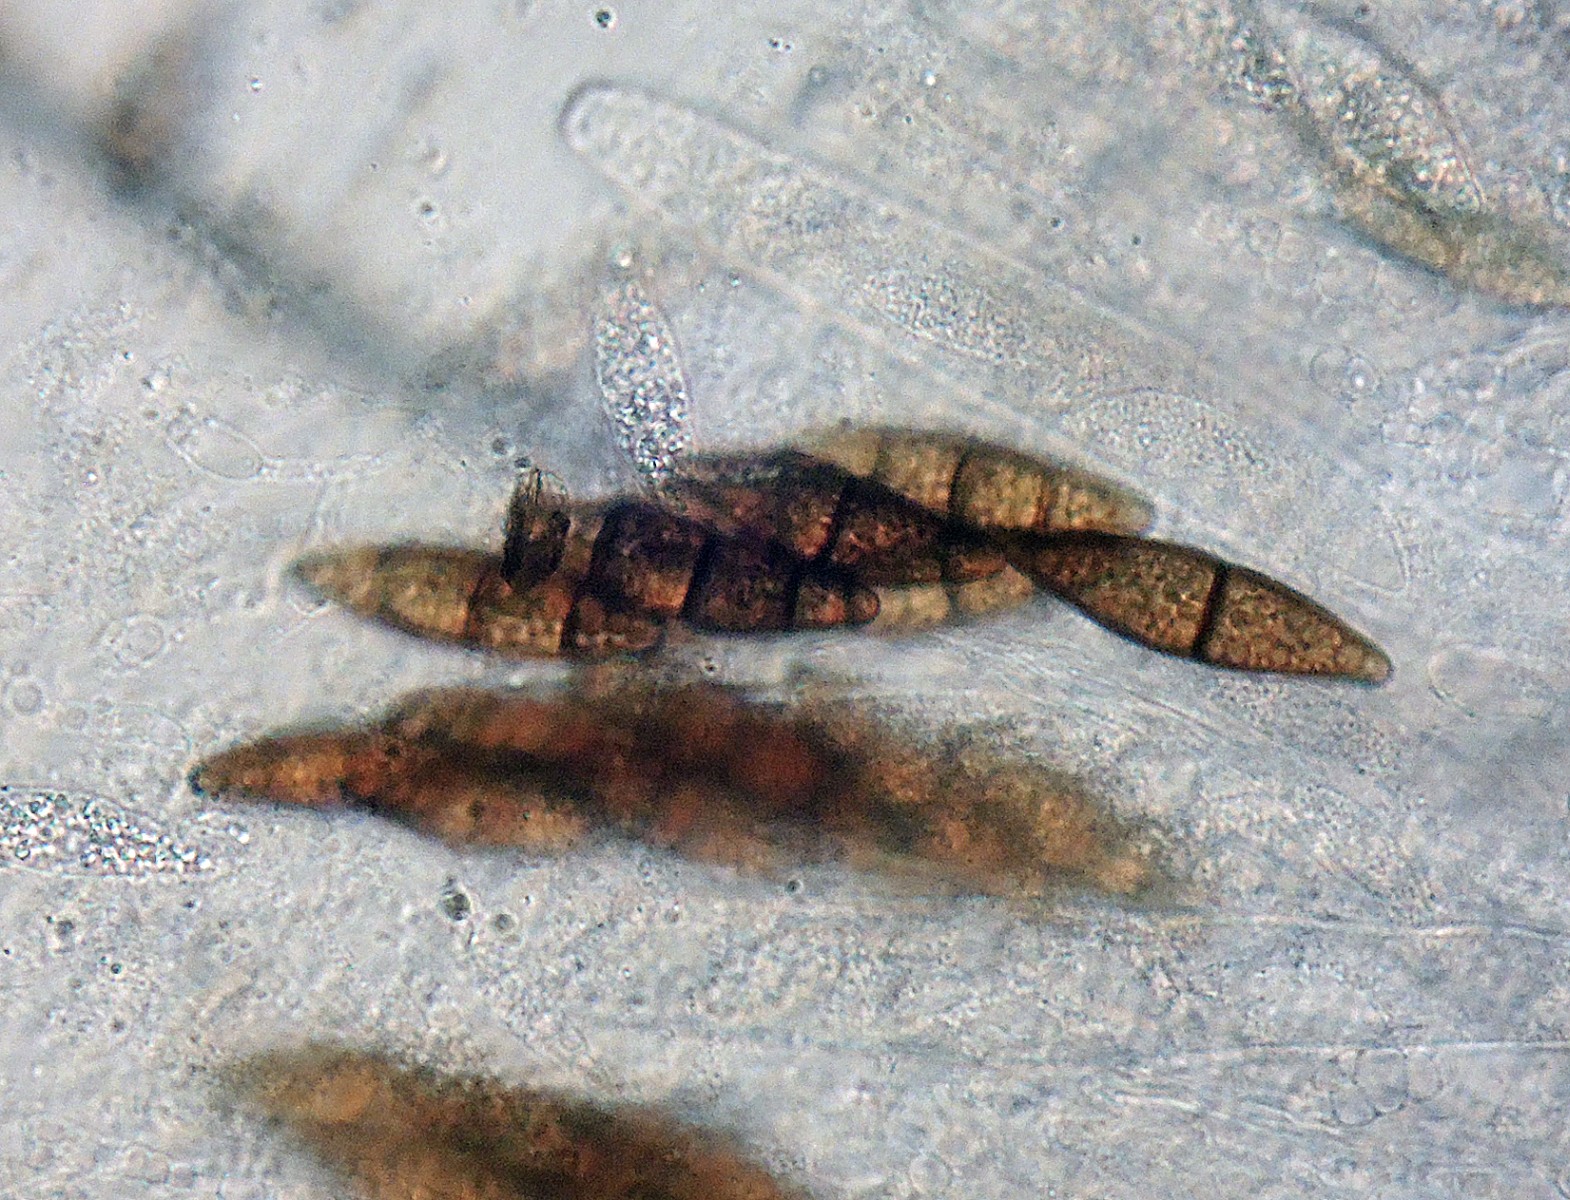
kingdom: Fungi
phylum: Ascomycota
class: Sordariomycetes
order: Sordariales
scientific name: Sordariales
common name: kernesvampordenen
